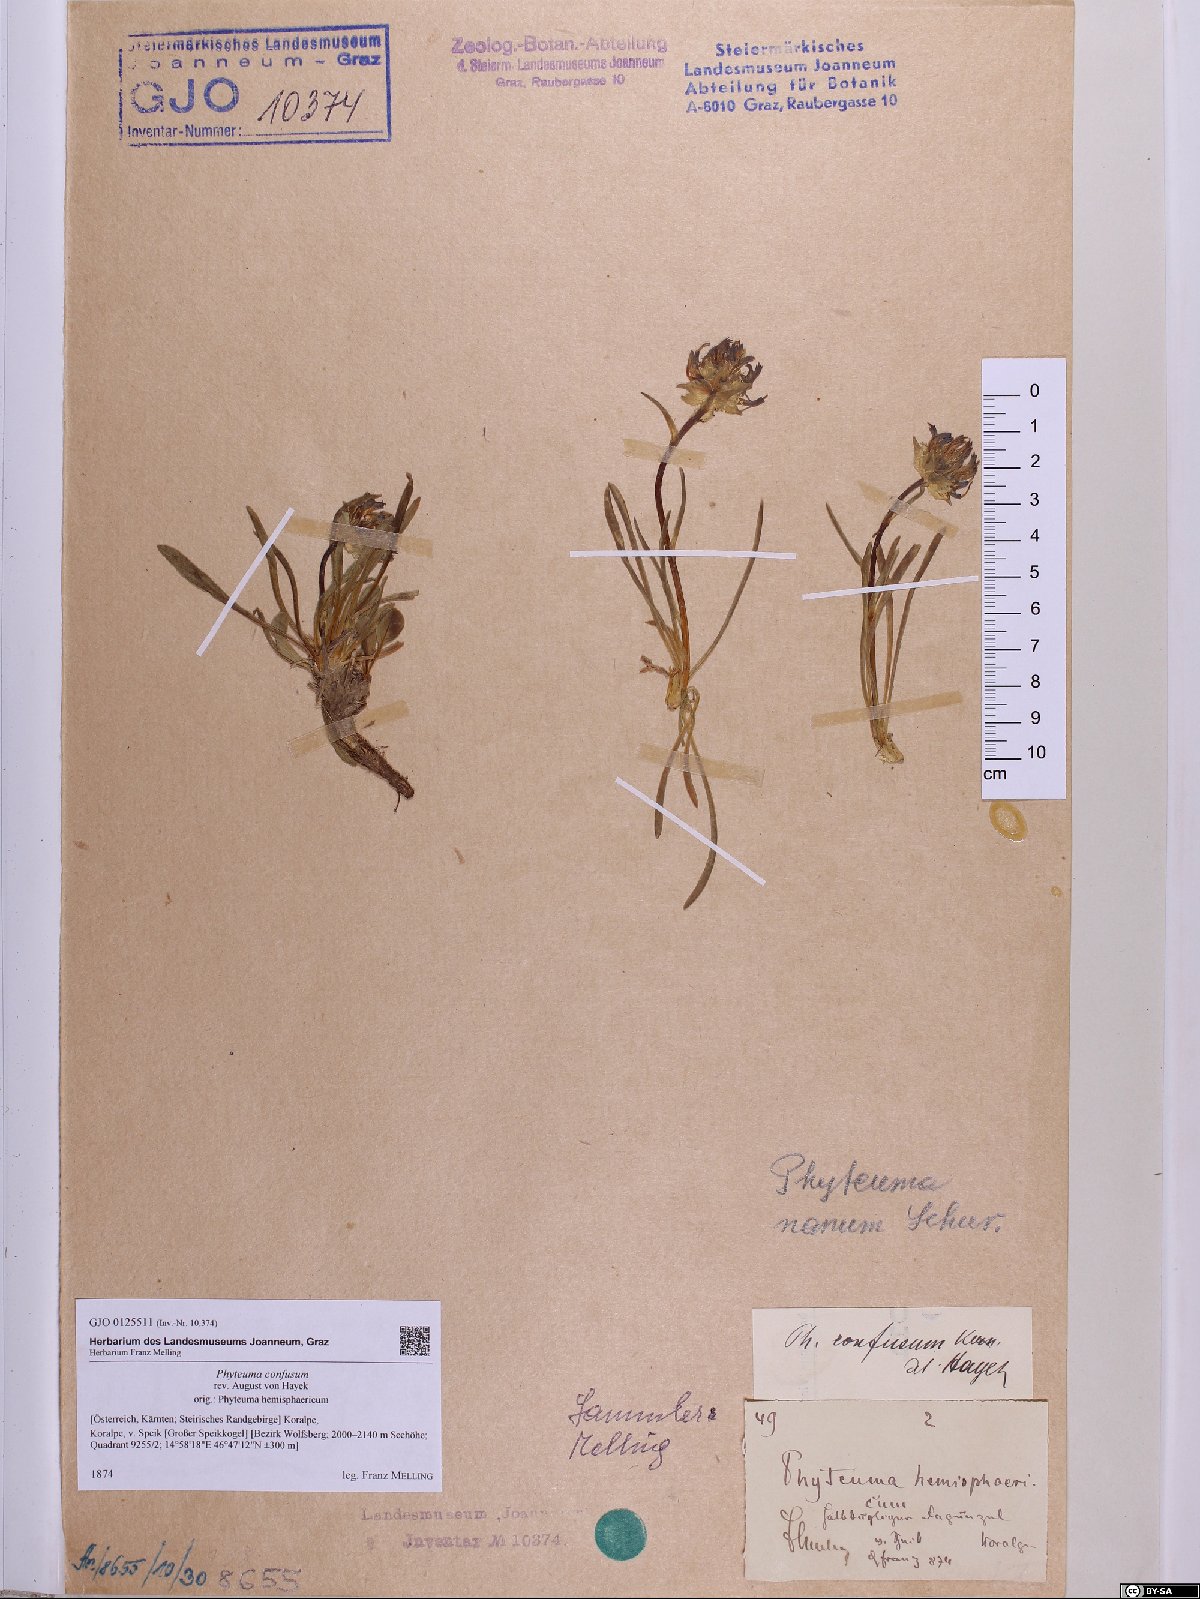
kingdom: Plantae
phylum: Tracheophyta
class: Magnoliopsida
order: Asterales
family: Campanulaceae
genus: Phyteuma
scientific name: Phyteuma confusum
